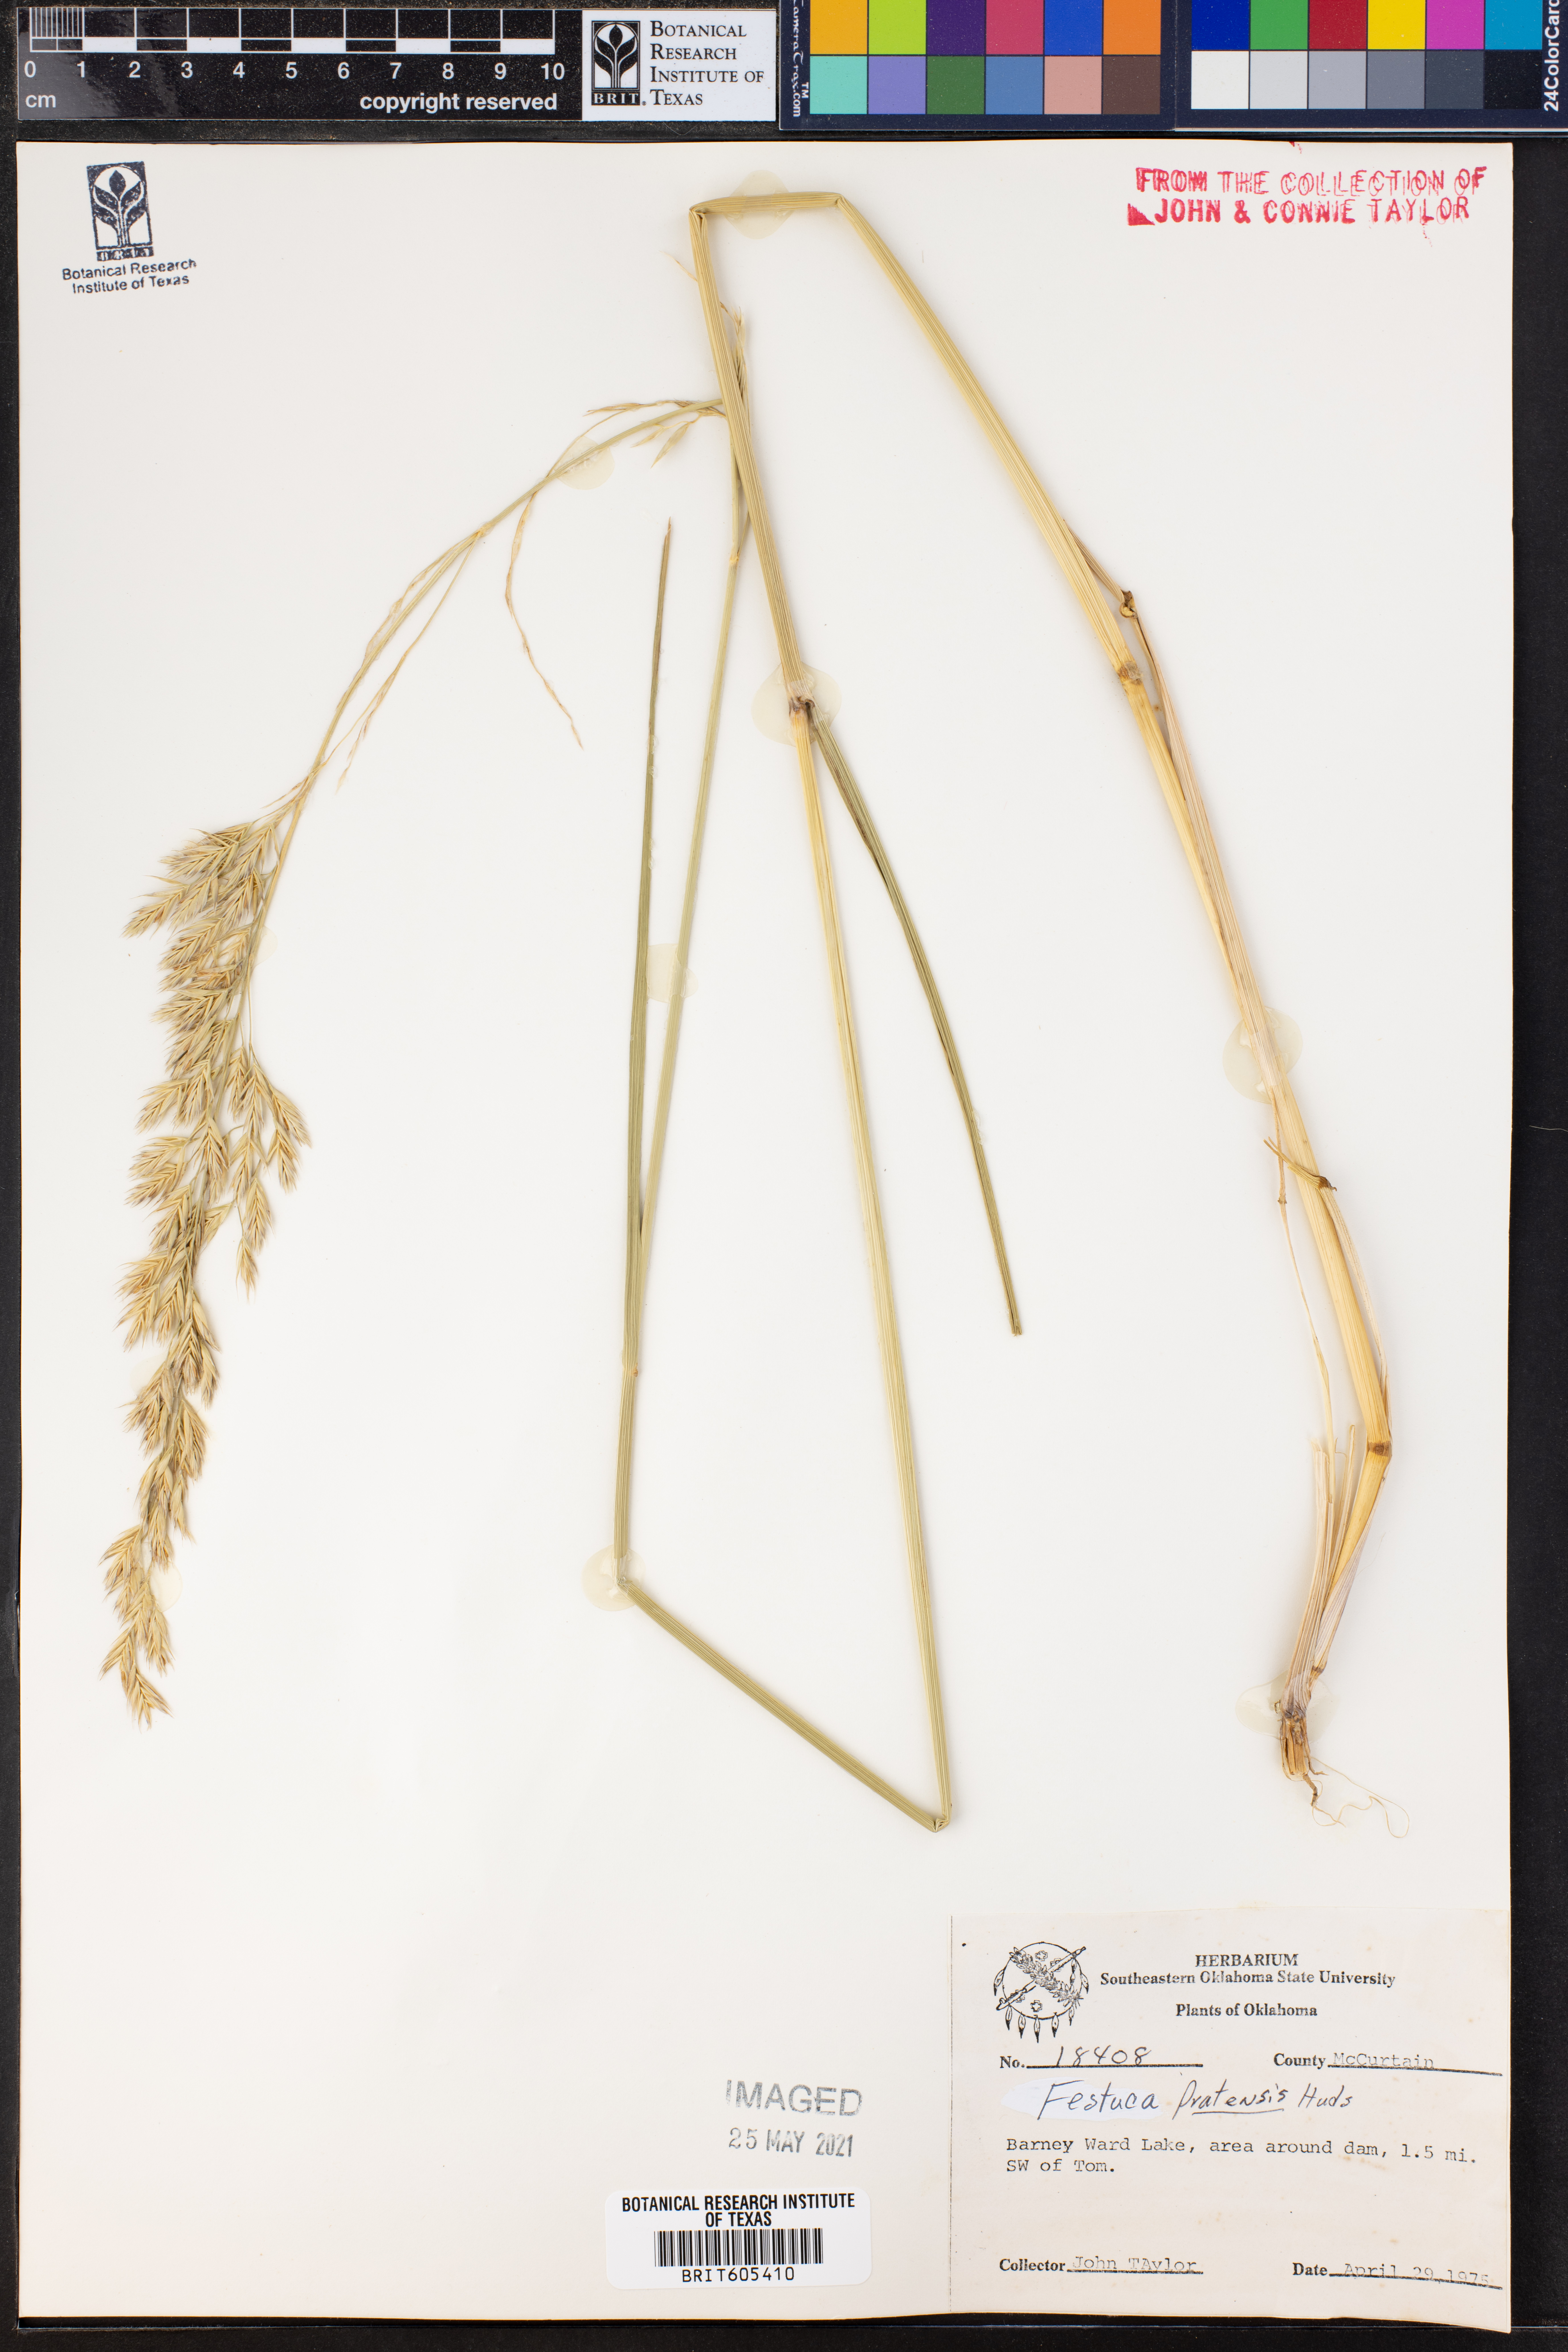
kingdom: Plantae
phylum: Tracheophyta
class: Liliopsida
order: Poales
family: Poaceae
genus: Lolium
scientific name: Lolium pratense
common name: Dover grass
